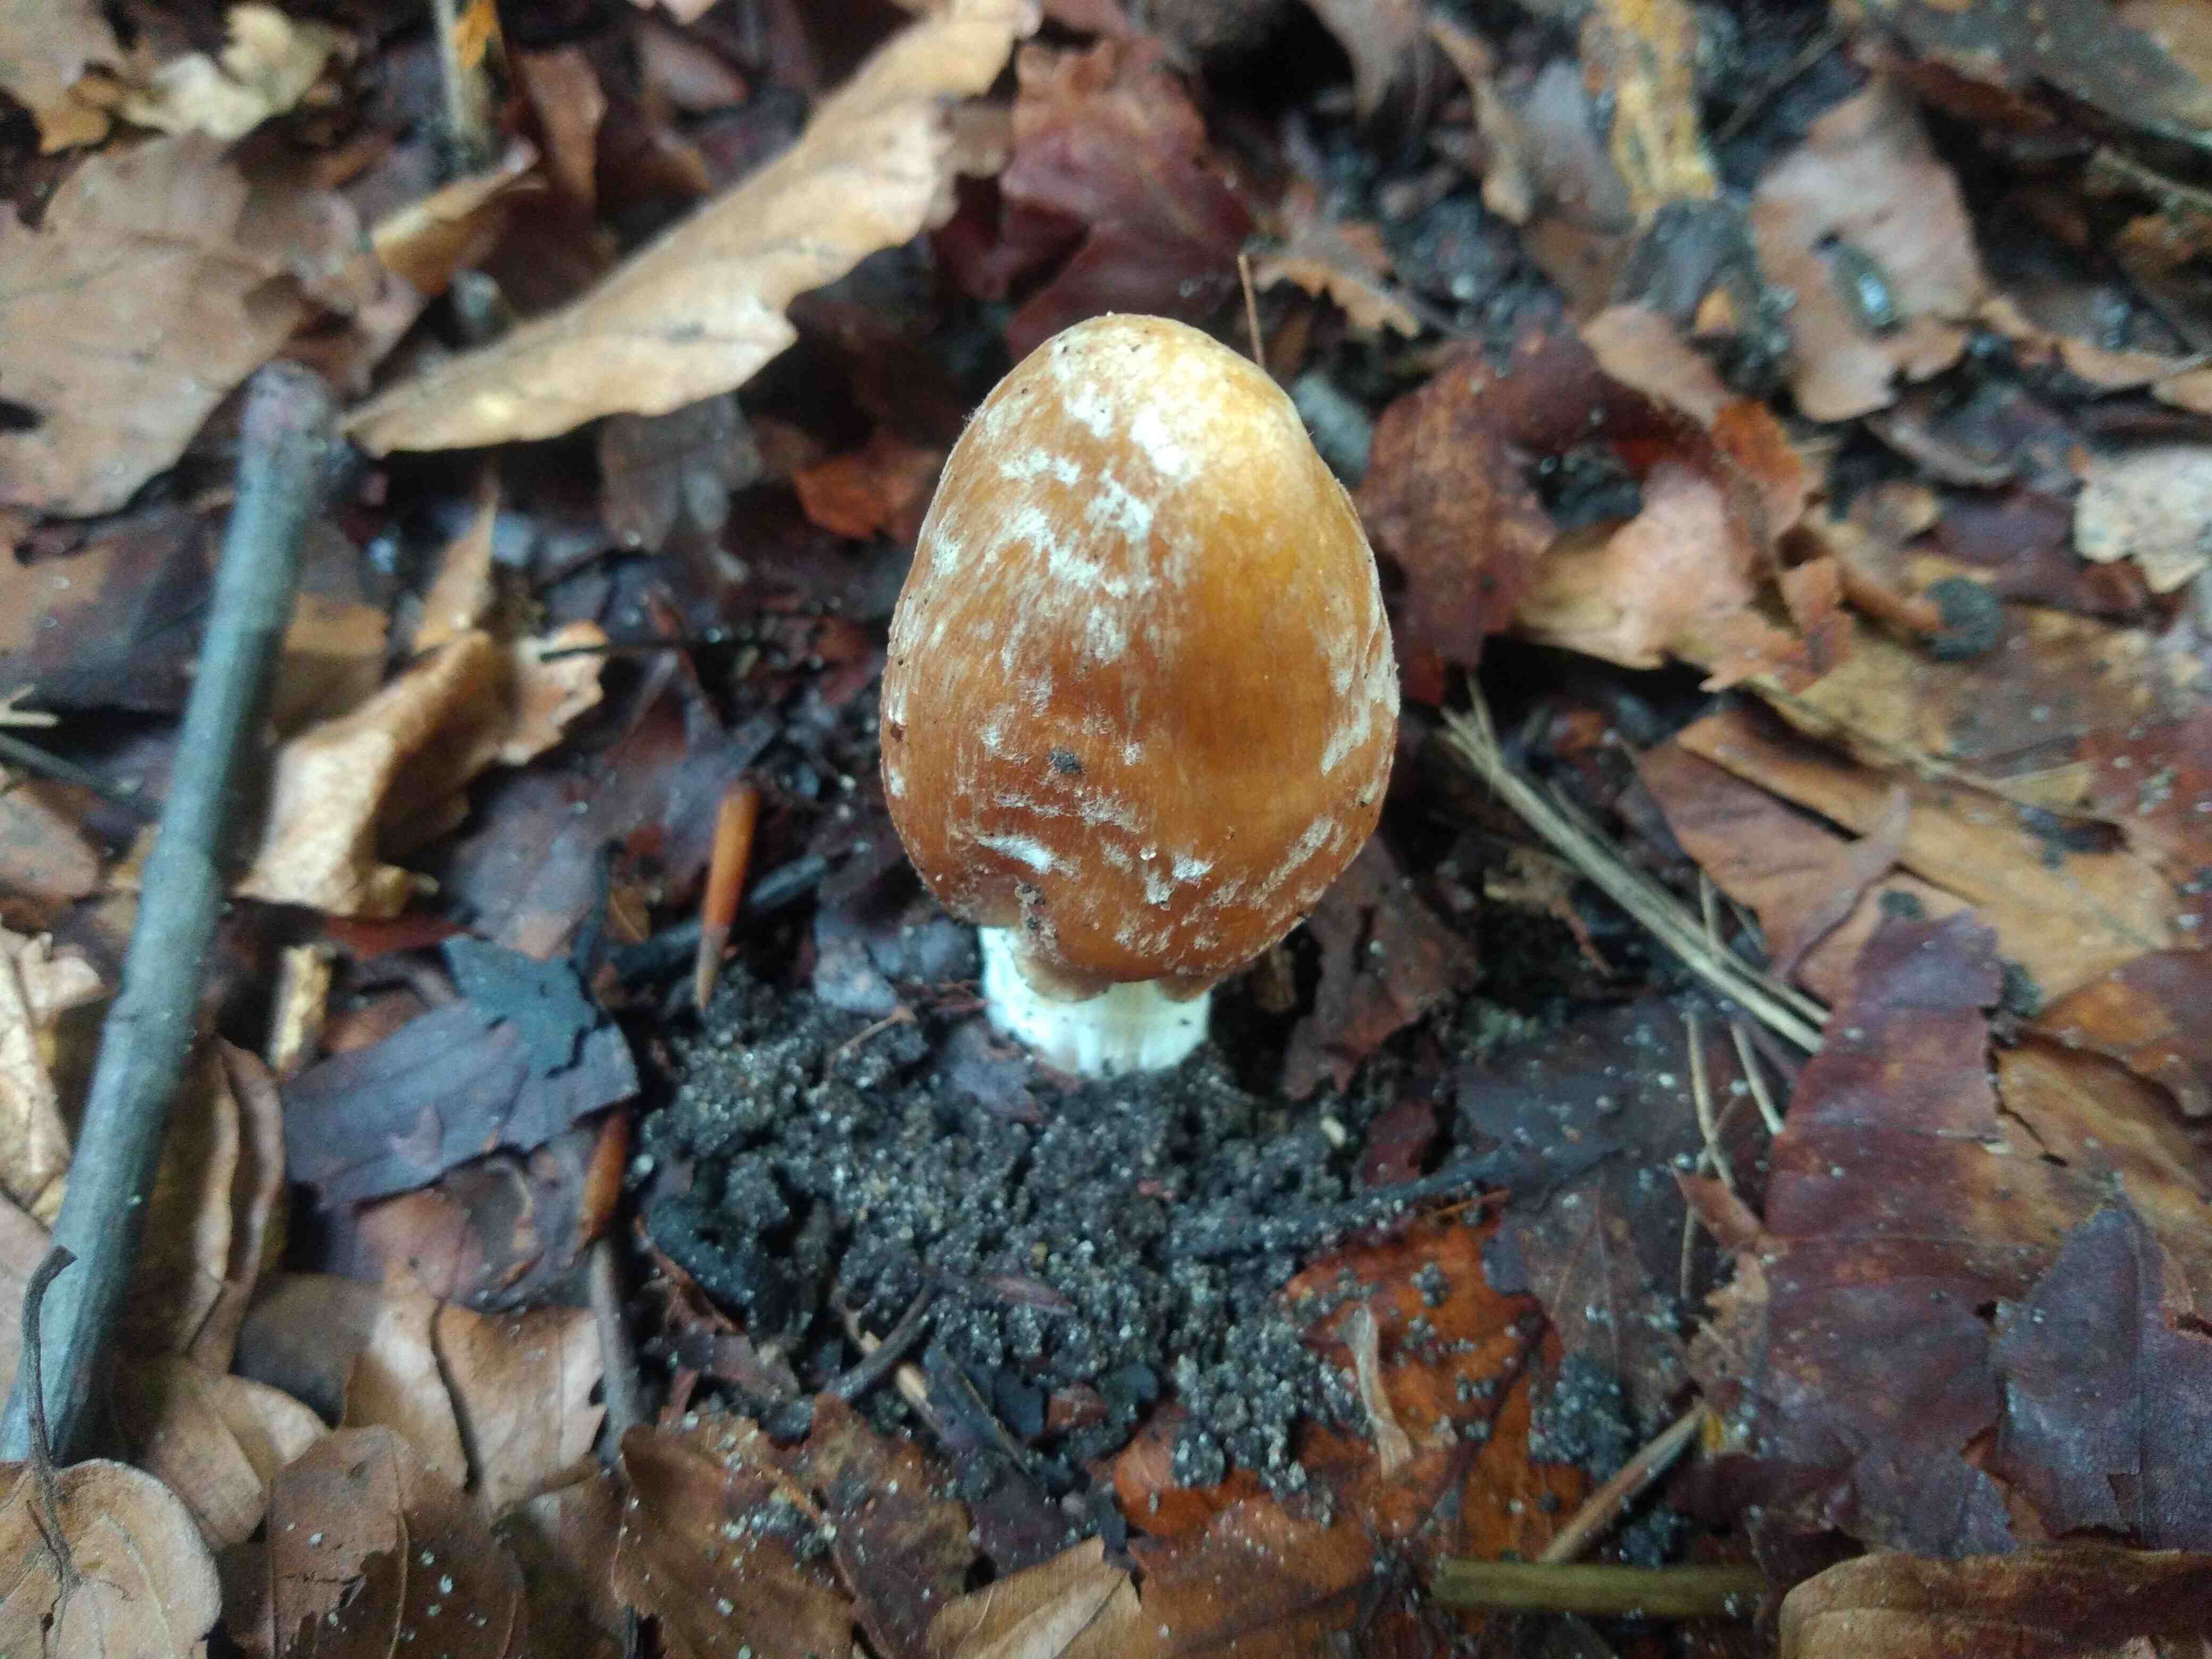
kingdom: Fungi
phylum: Basidiomycota
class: Agaricomycetes
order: Agaricales
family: Inocybaceae
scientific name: Inocybaceae
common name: trævlhatfamilien
